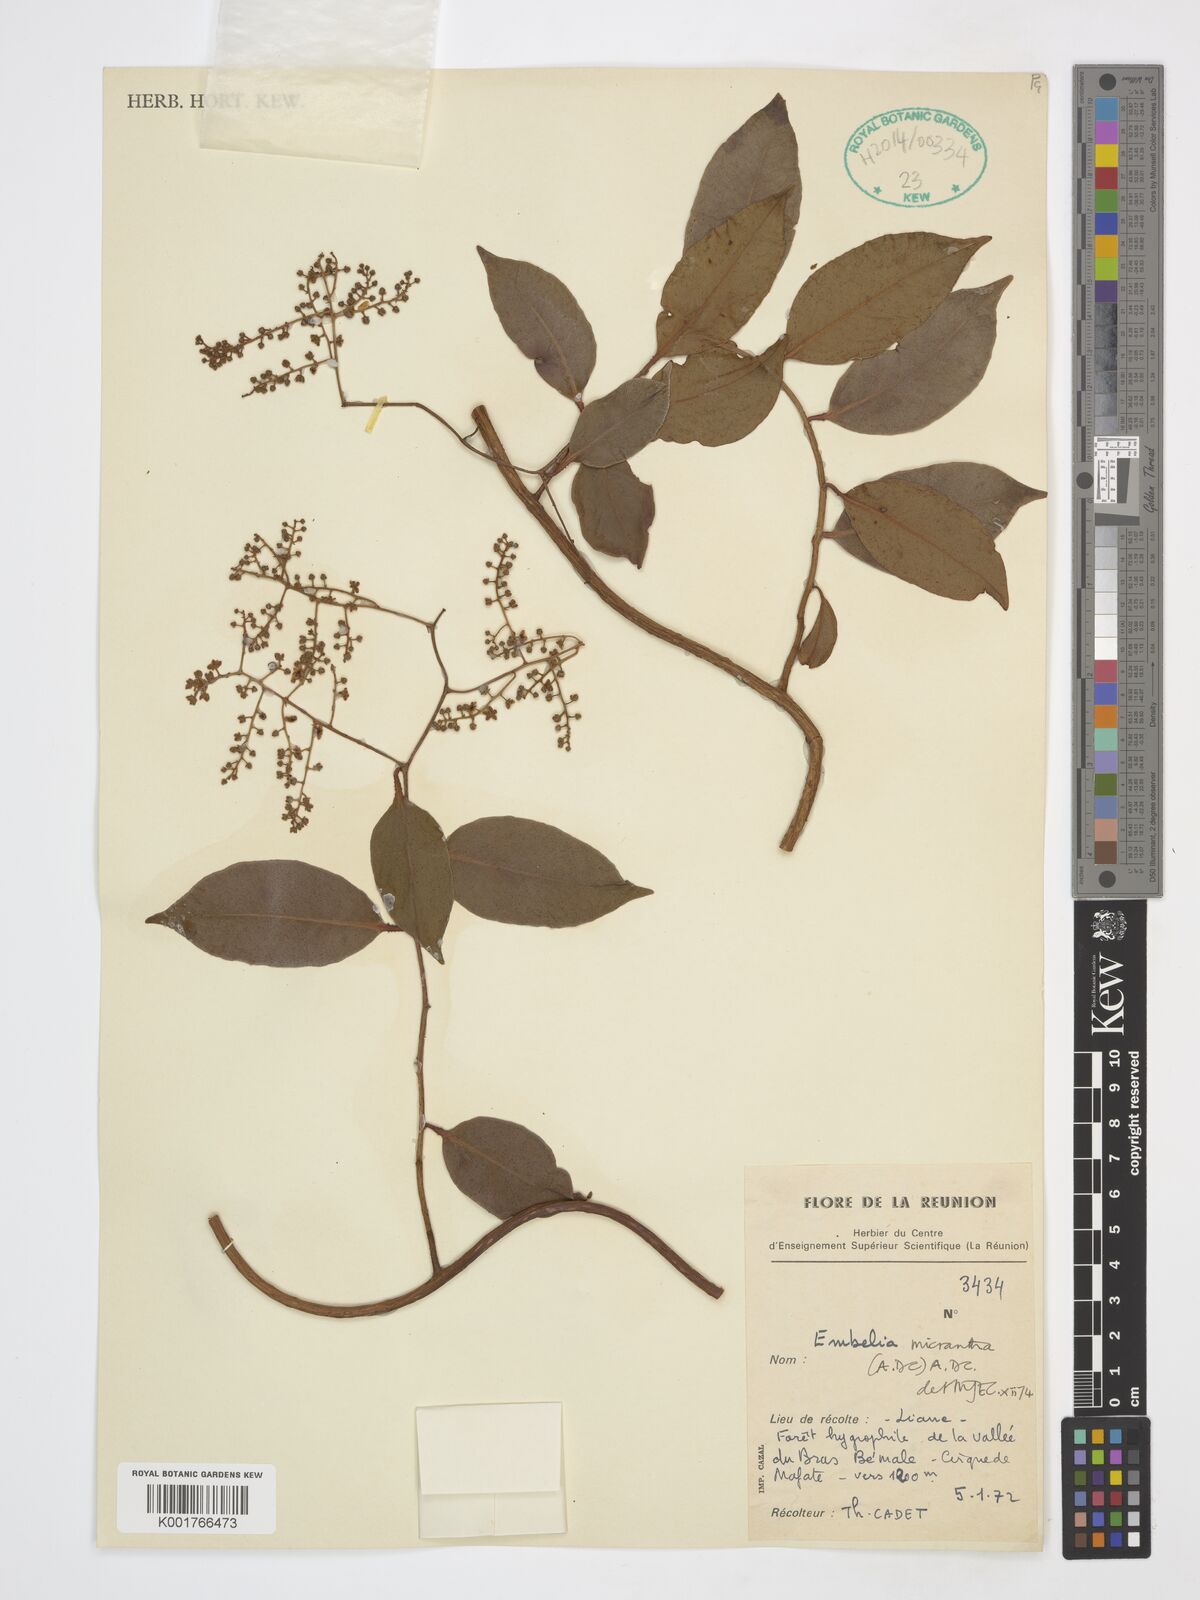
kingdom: Plantae
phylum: Tracheophyta
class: Magnoliopsida
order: Ericales
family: Primulaceae
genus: Embelia
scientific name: Embelia micrantha
